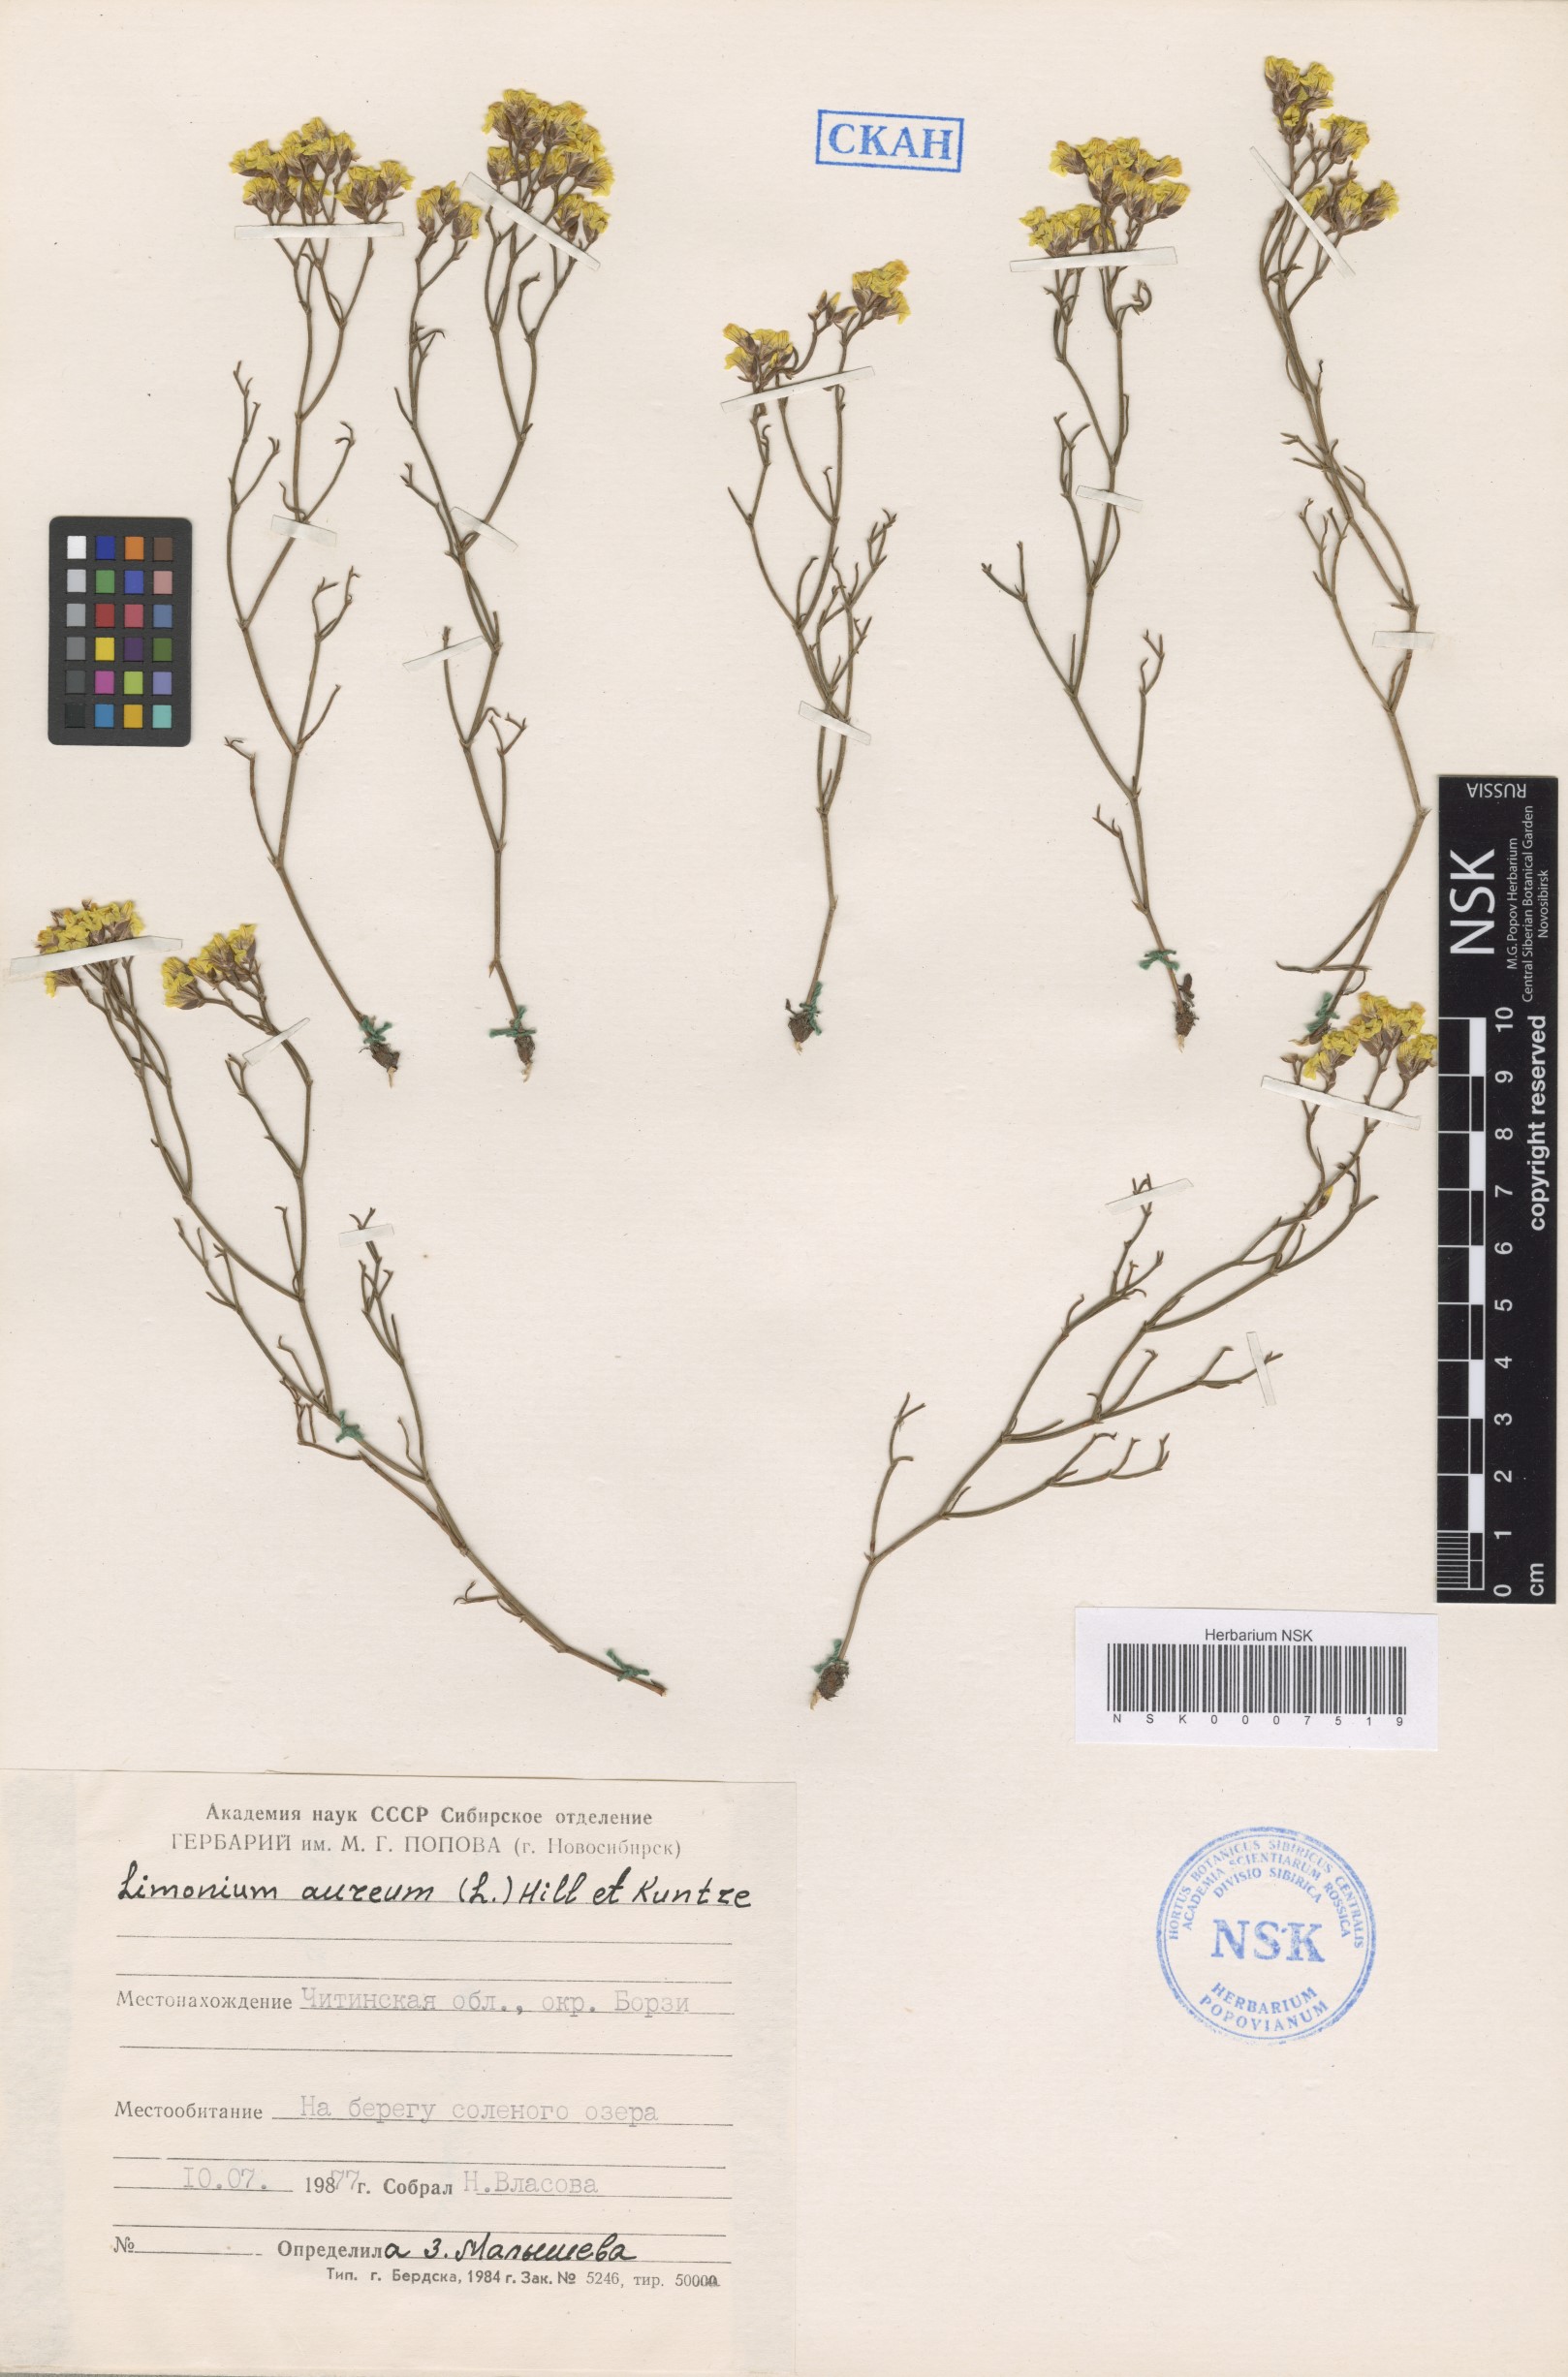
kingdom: Plantae
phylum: Tracheophyta
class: Magnoliopsida
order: Caryophyllales
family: Plumbaginaceae
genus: Limonium
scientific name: Limonium aureum
